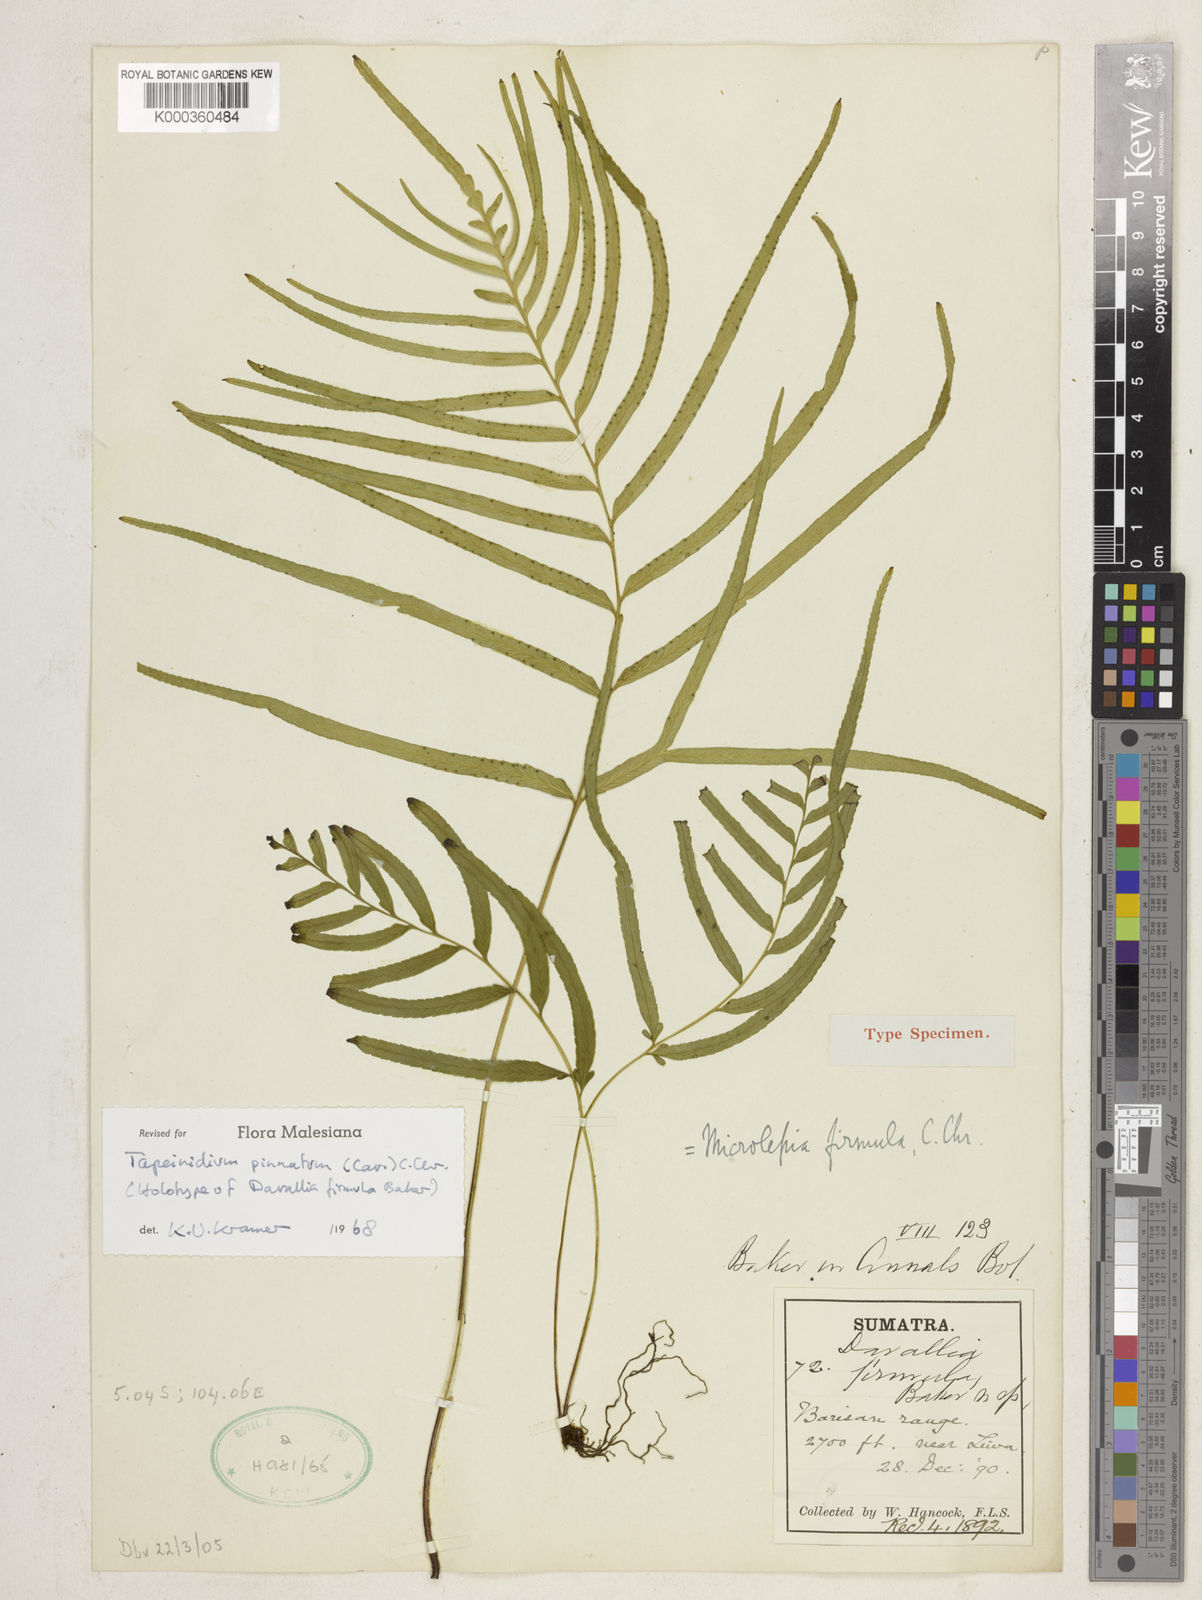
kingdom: Plantae
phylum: Tracheophyta
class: Polypodiopsida
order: Polypodiales
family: Lindsaeaceae
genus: Tapeinidium
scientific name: Tapeinidium pinnatum
